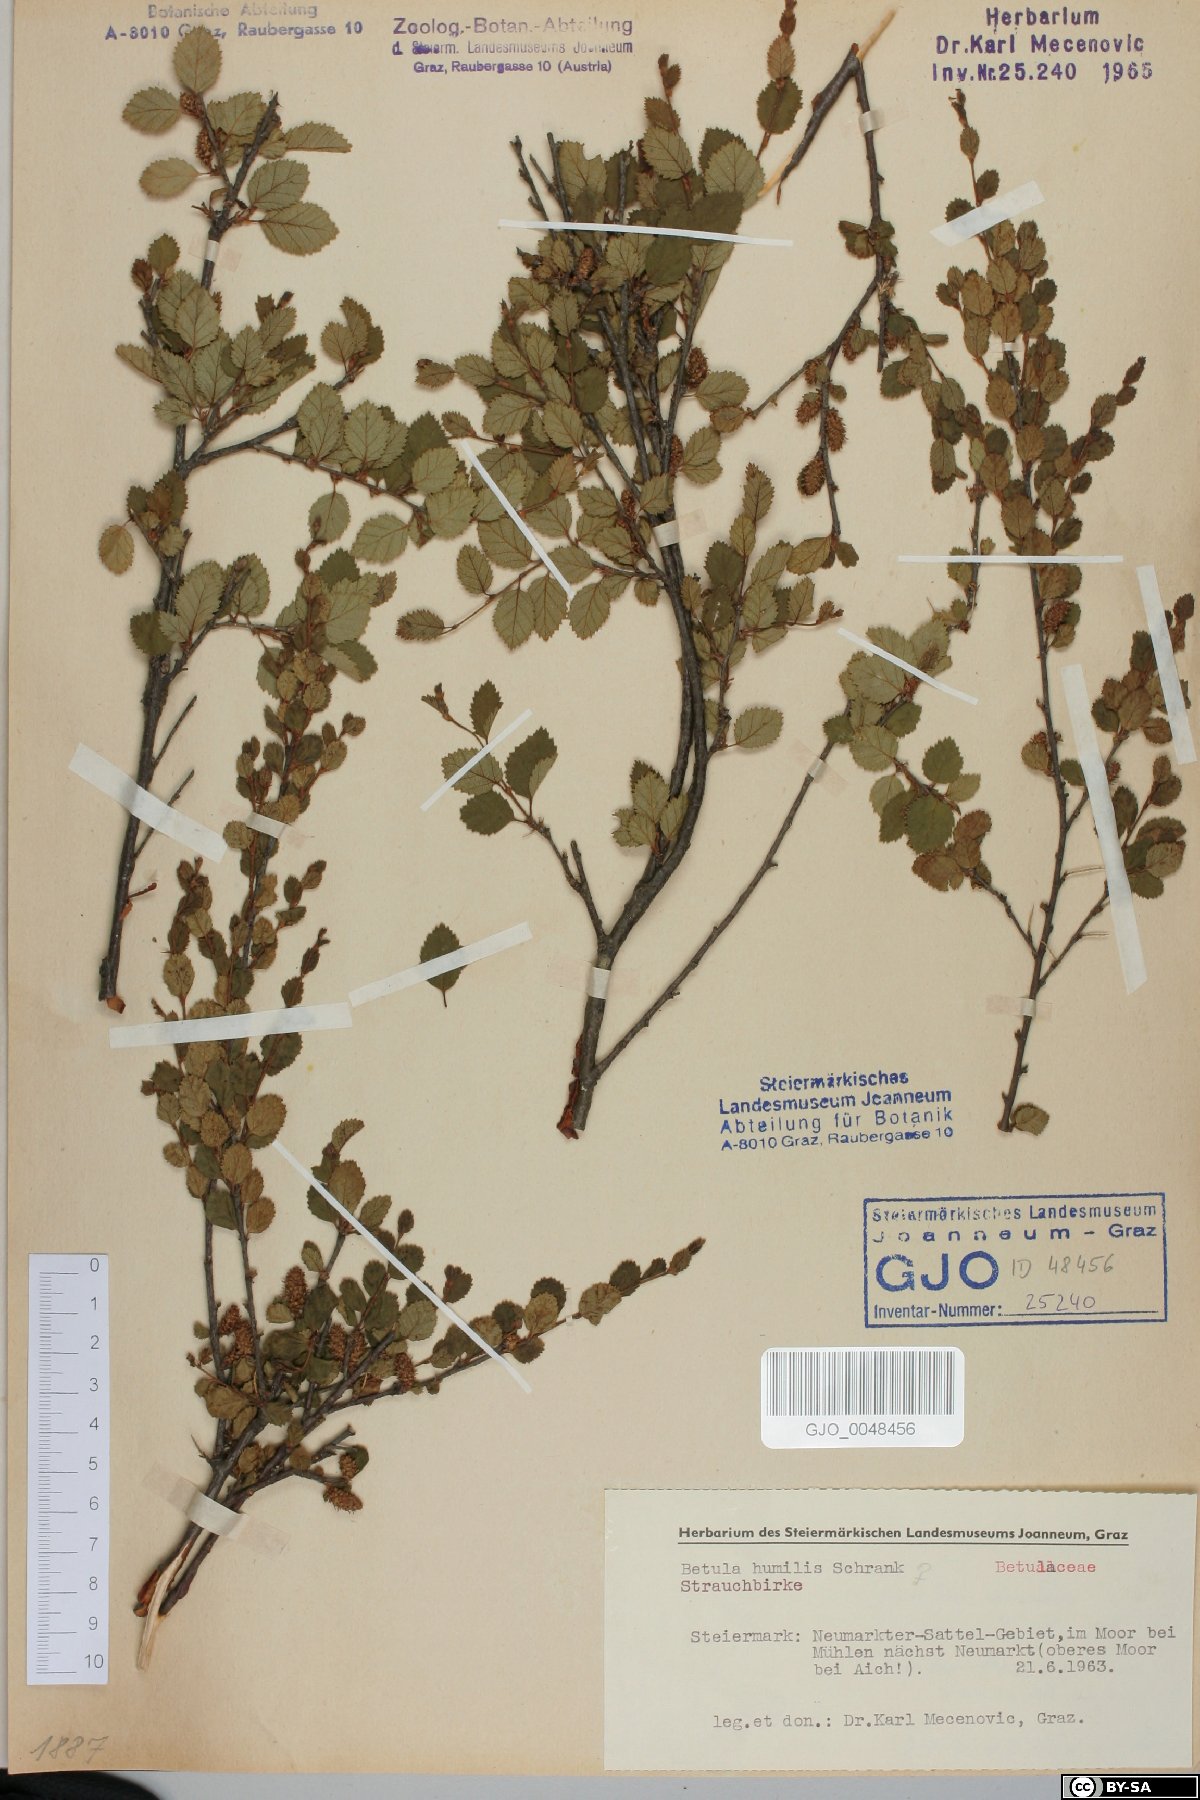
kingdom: Plantae
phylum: Tracheophyta
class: Magnoliopsida
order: Fagales
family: Betulaceae
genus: Betula
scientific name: Betula humilis
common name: Shrubby birch
